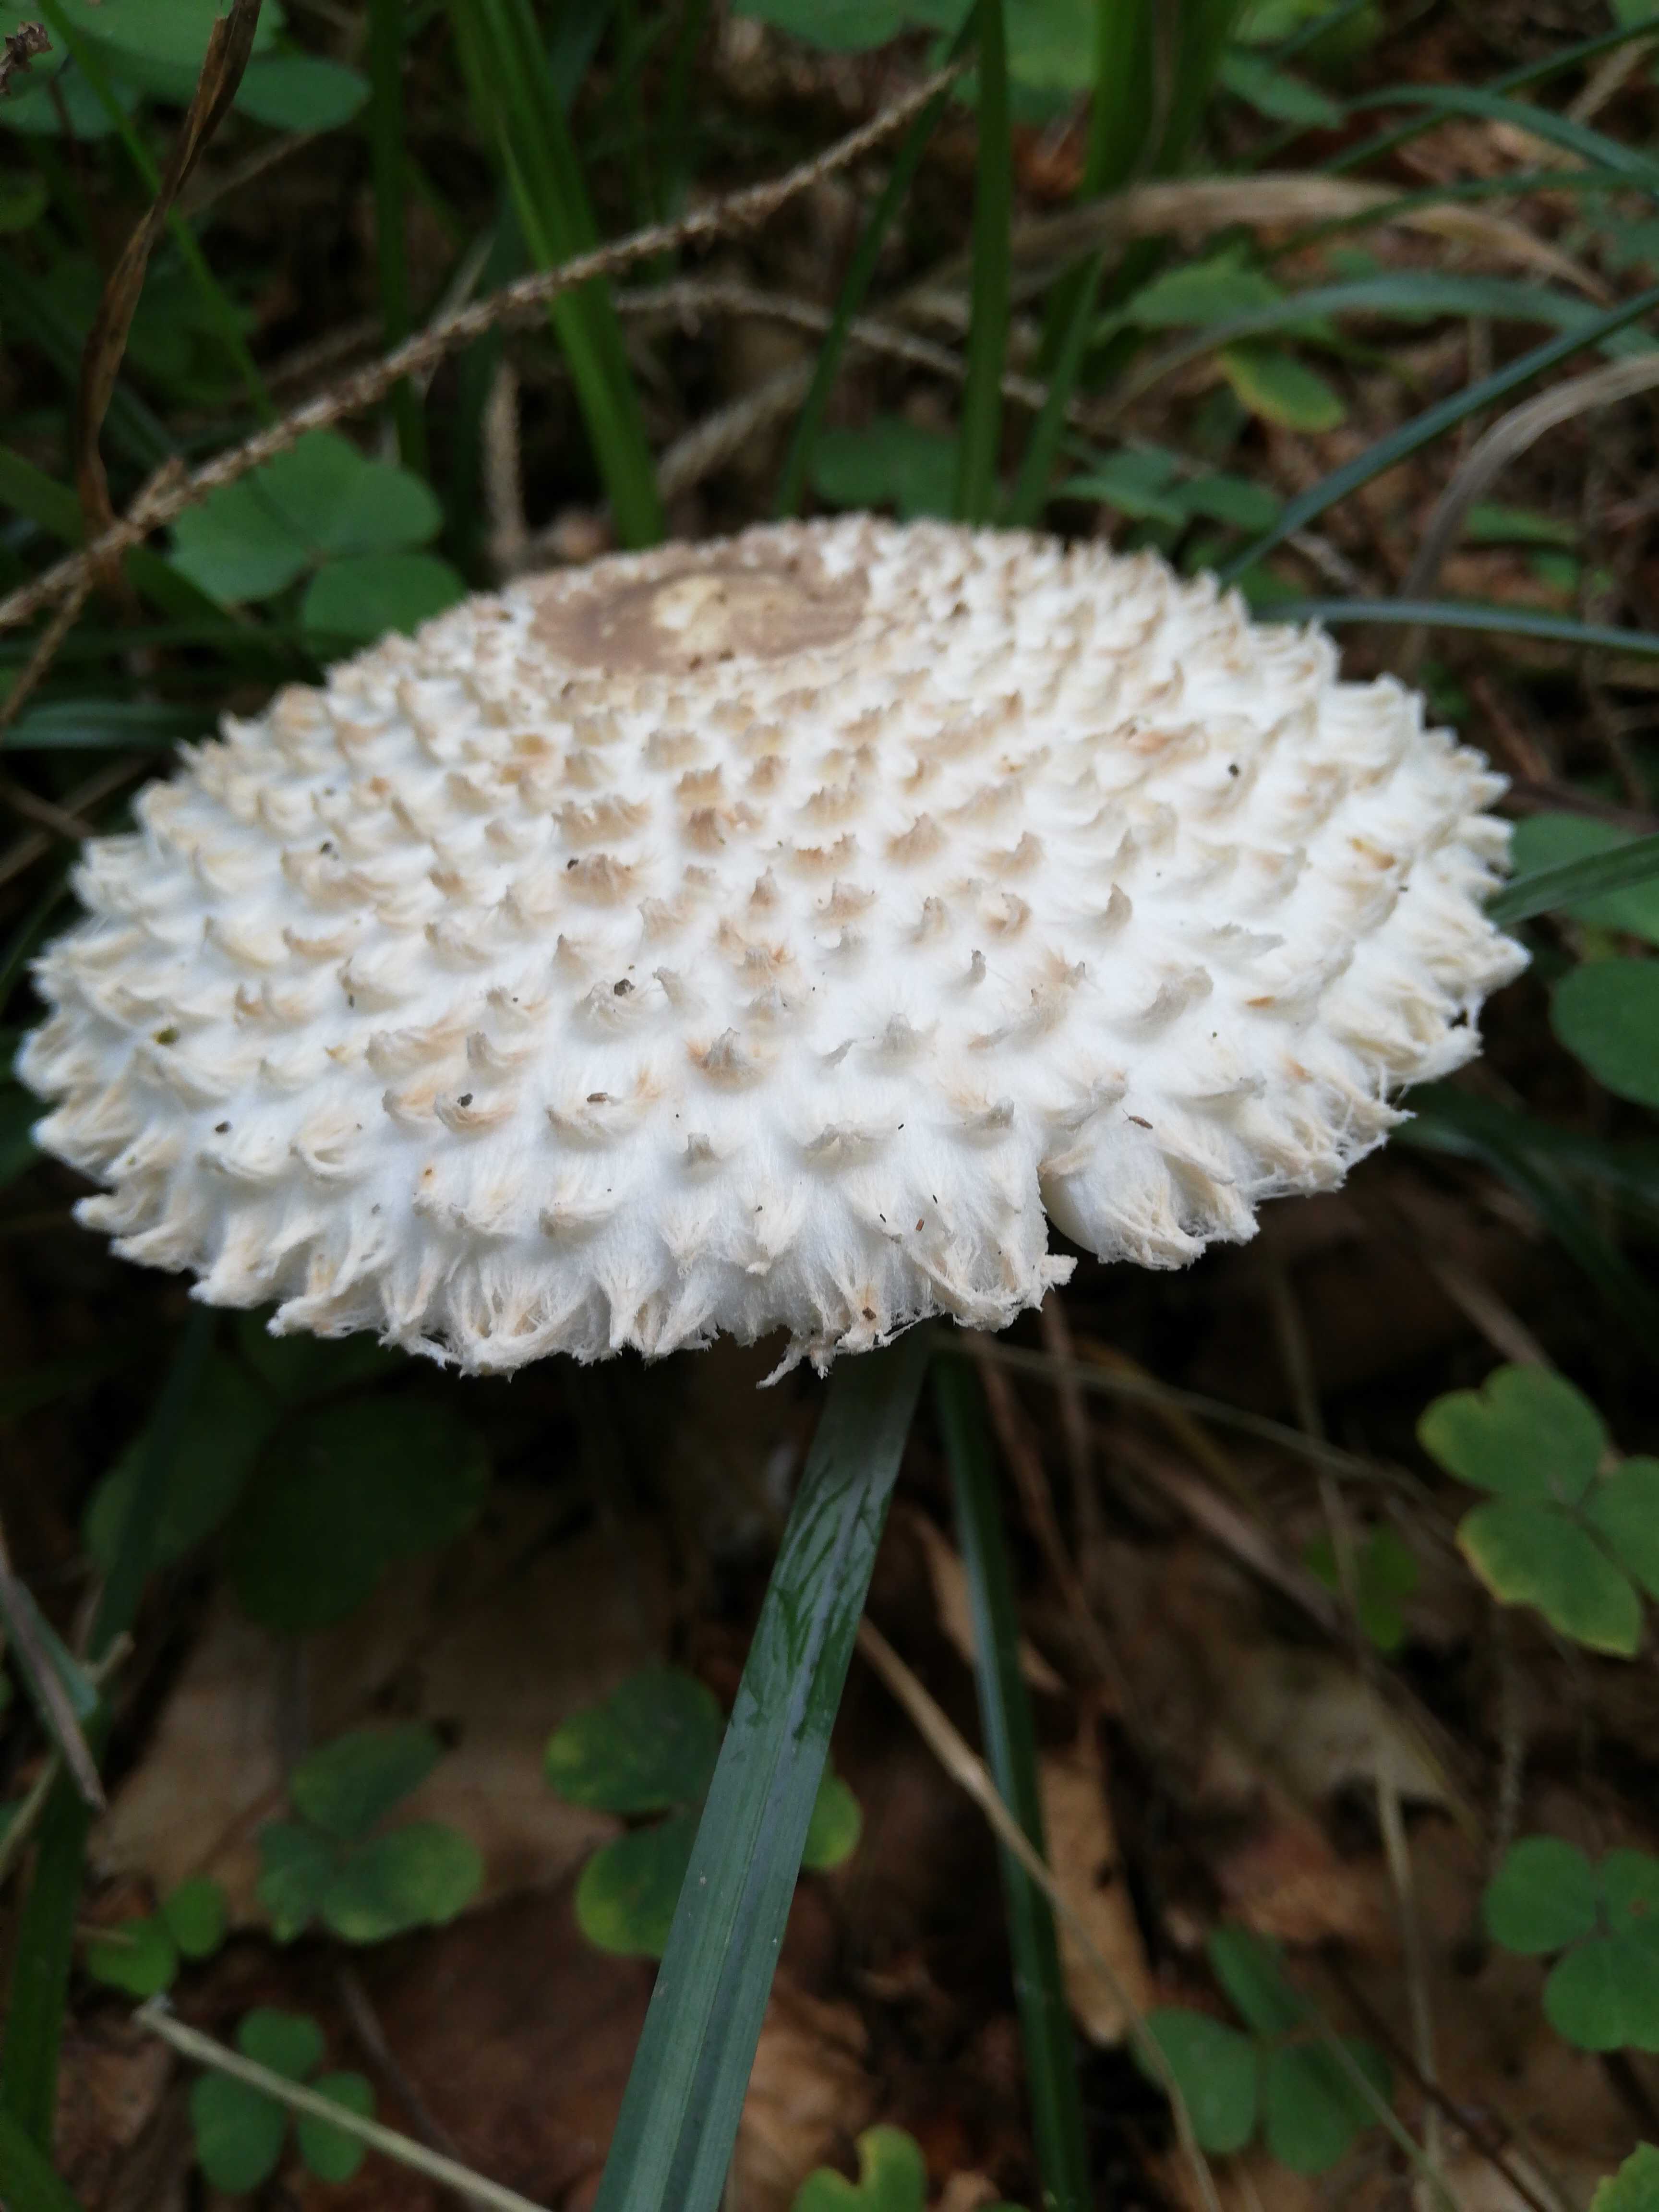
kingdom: Fungi
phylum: Basidiomycota
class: Agaricomycetes
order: Agaricales
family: Agaricaceae
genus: Leucoagaricus
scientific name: Leucoagaricus nympharum
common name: gran-silkehat
